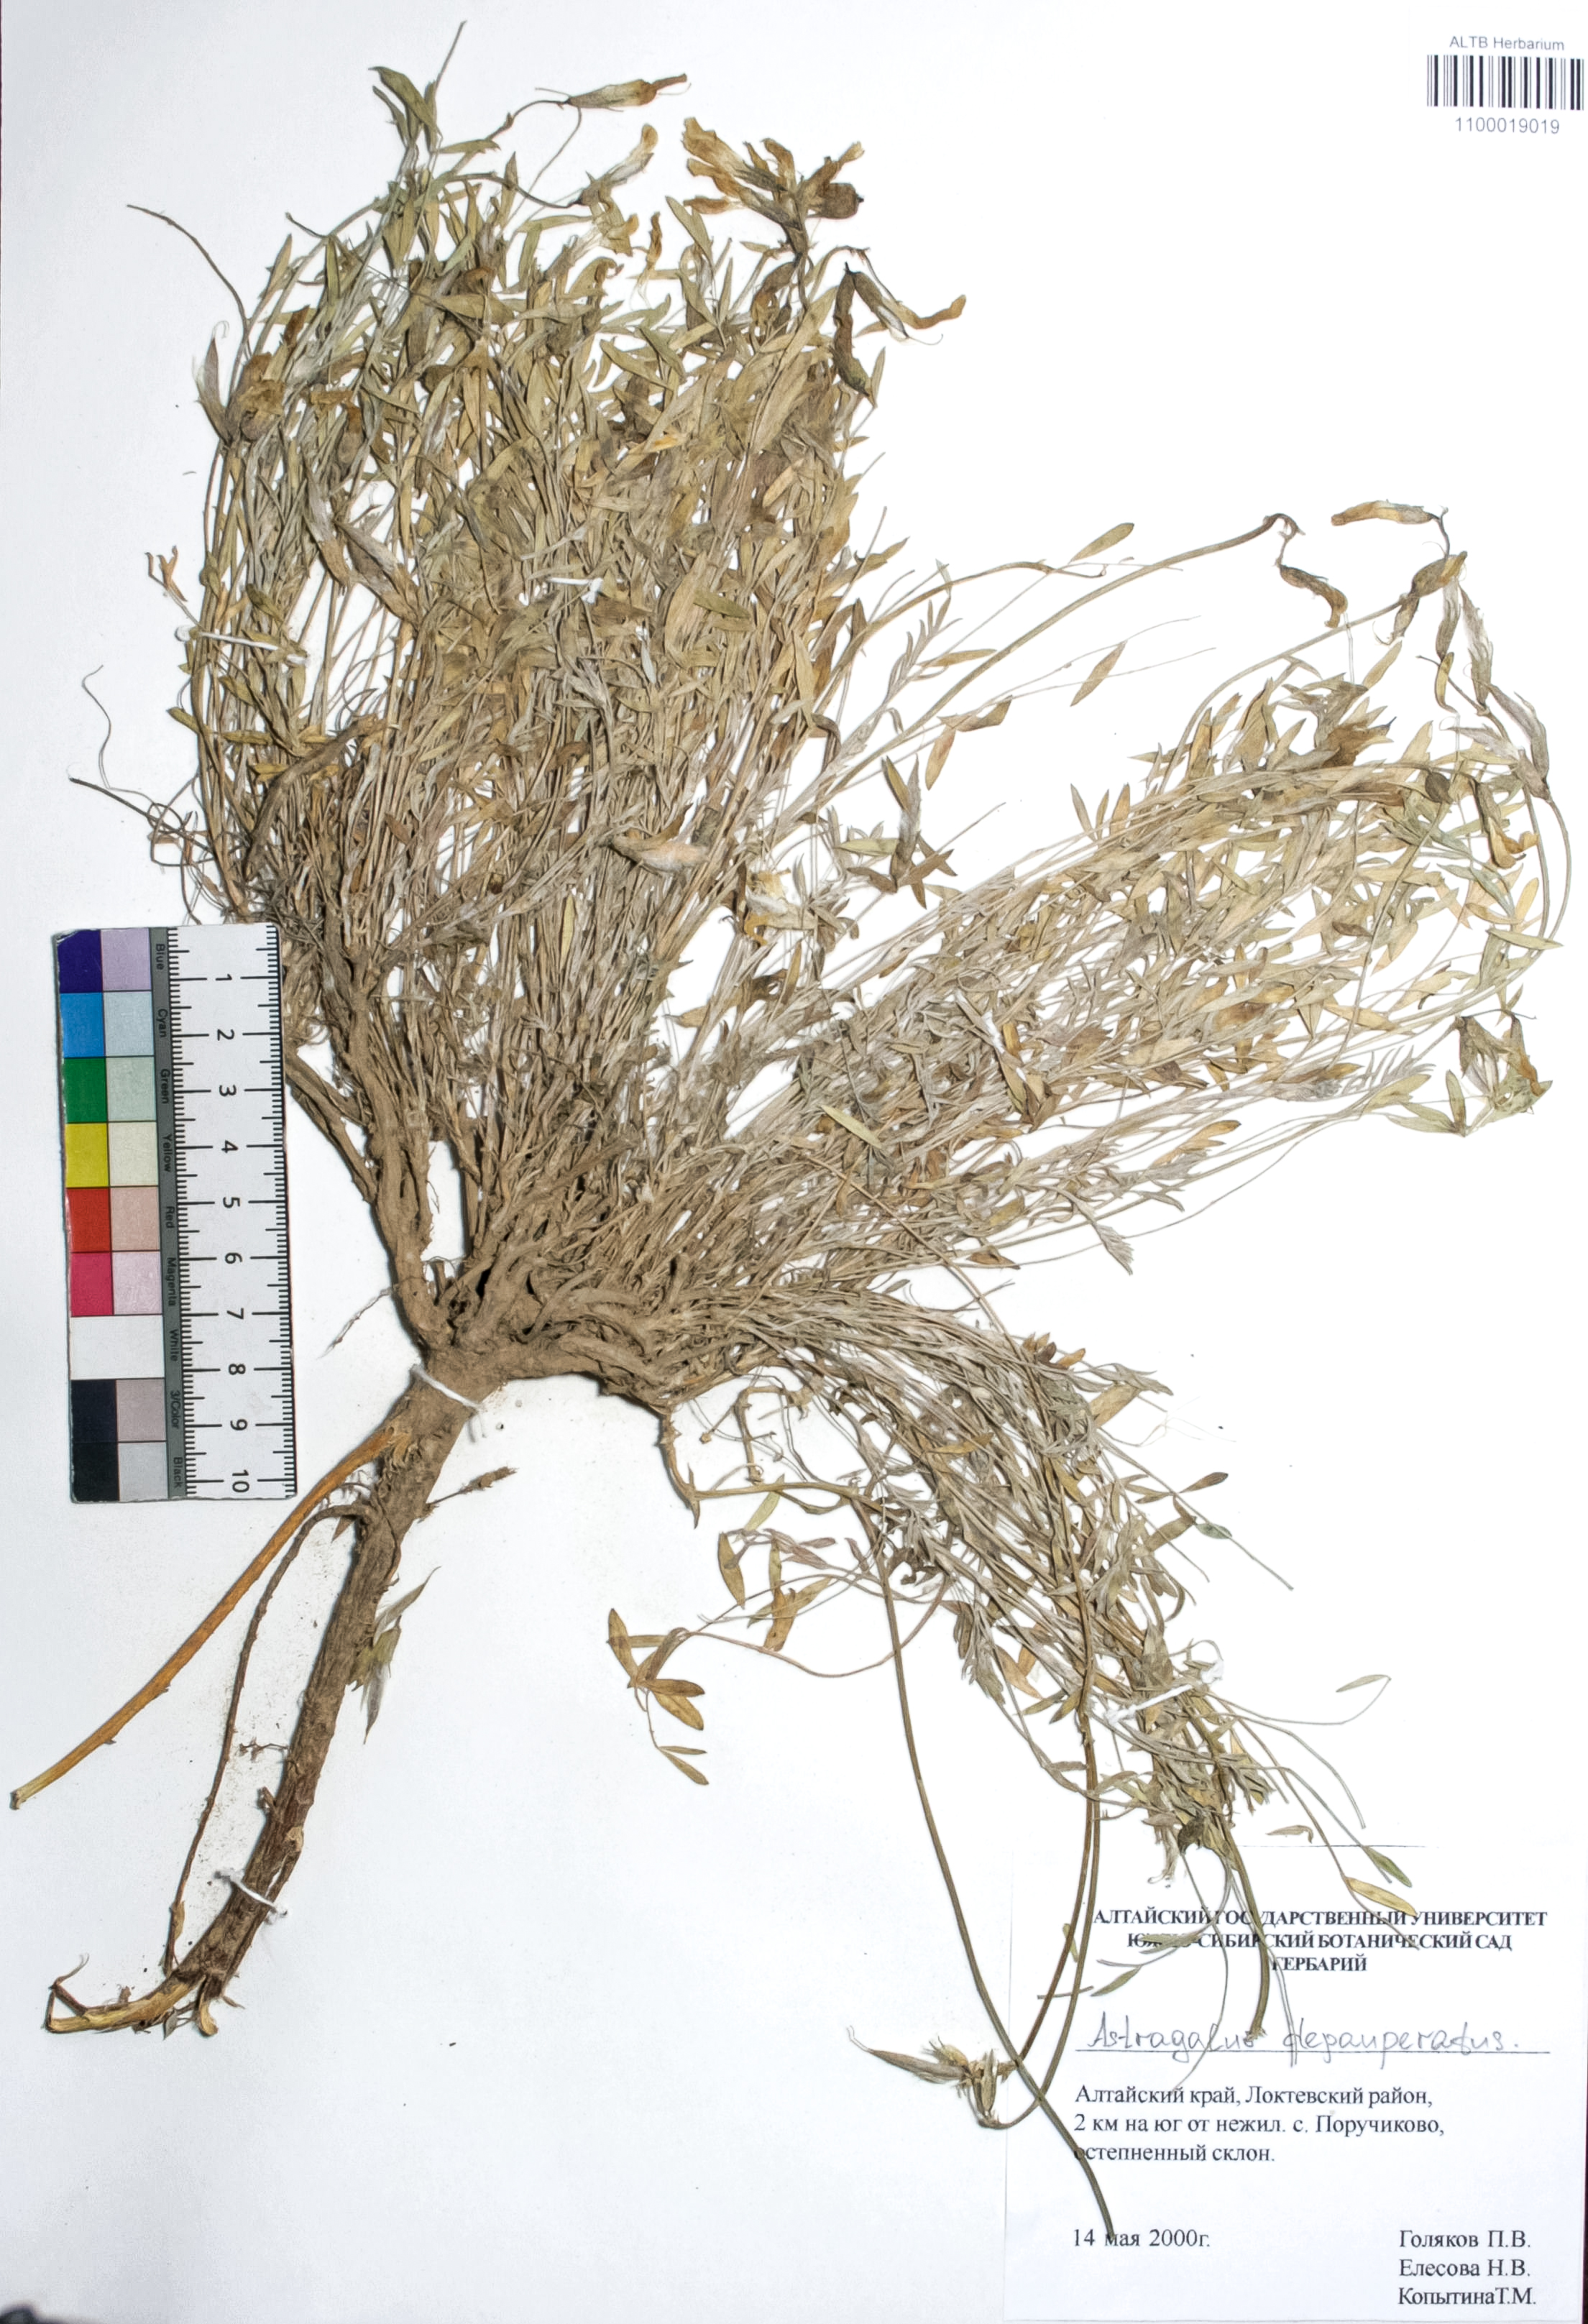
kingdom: Plantae
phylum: Tracheophyta
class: Magnoliopsida
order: Fabales
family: Fabaceae
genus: Astragalus
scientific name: Astragalus depauperatus
